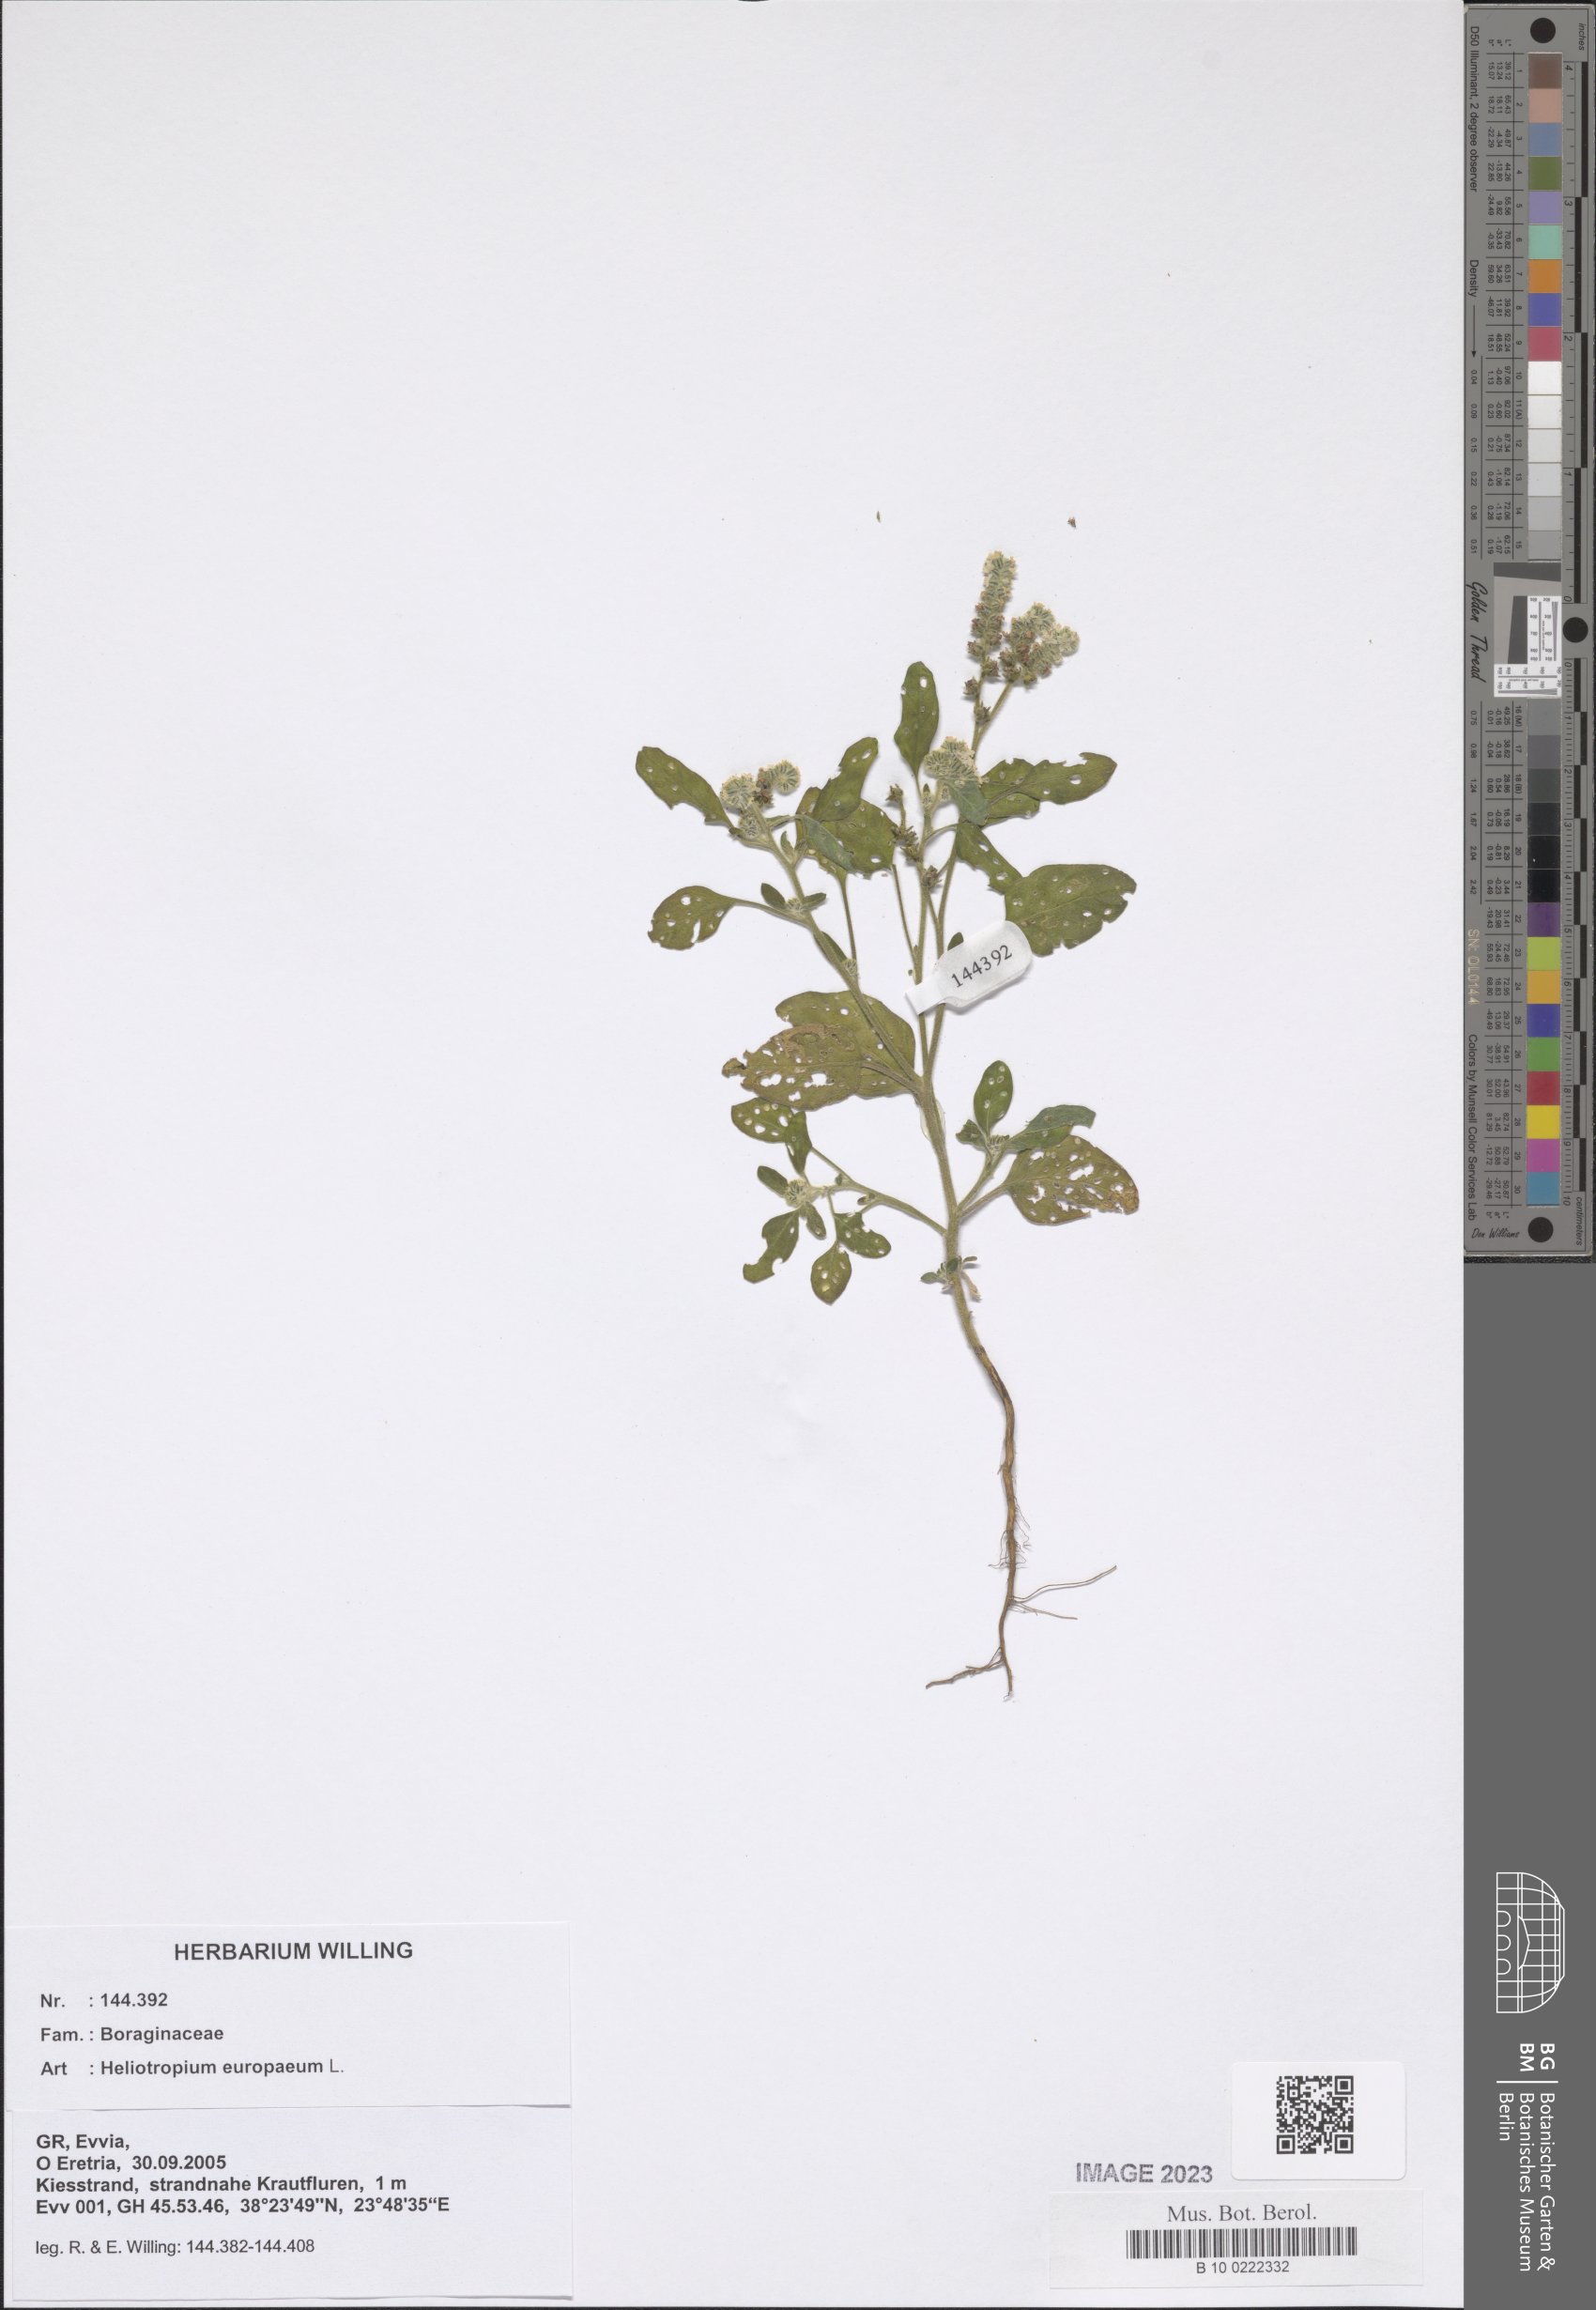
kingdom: Plantae
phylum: Tracheophyta
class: Magnoliopsida
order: Boraginales
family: Heliotropiaceae
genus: Heliotropium
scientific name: Heliotropium europaeum
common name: European heliotrope
